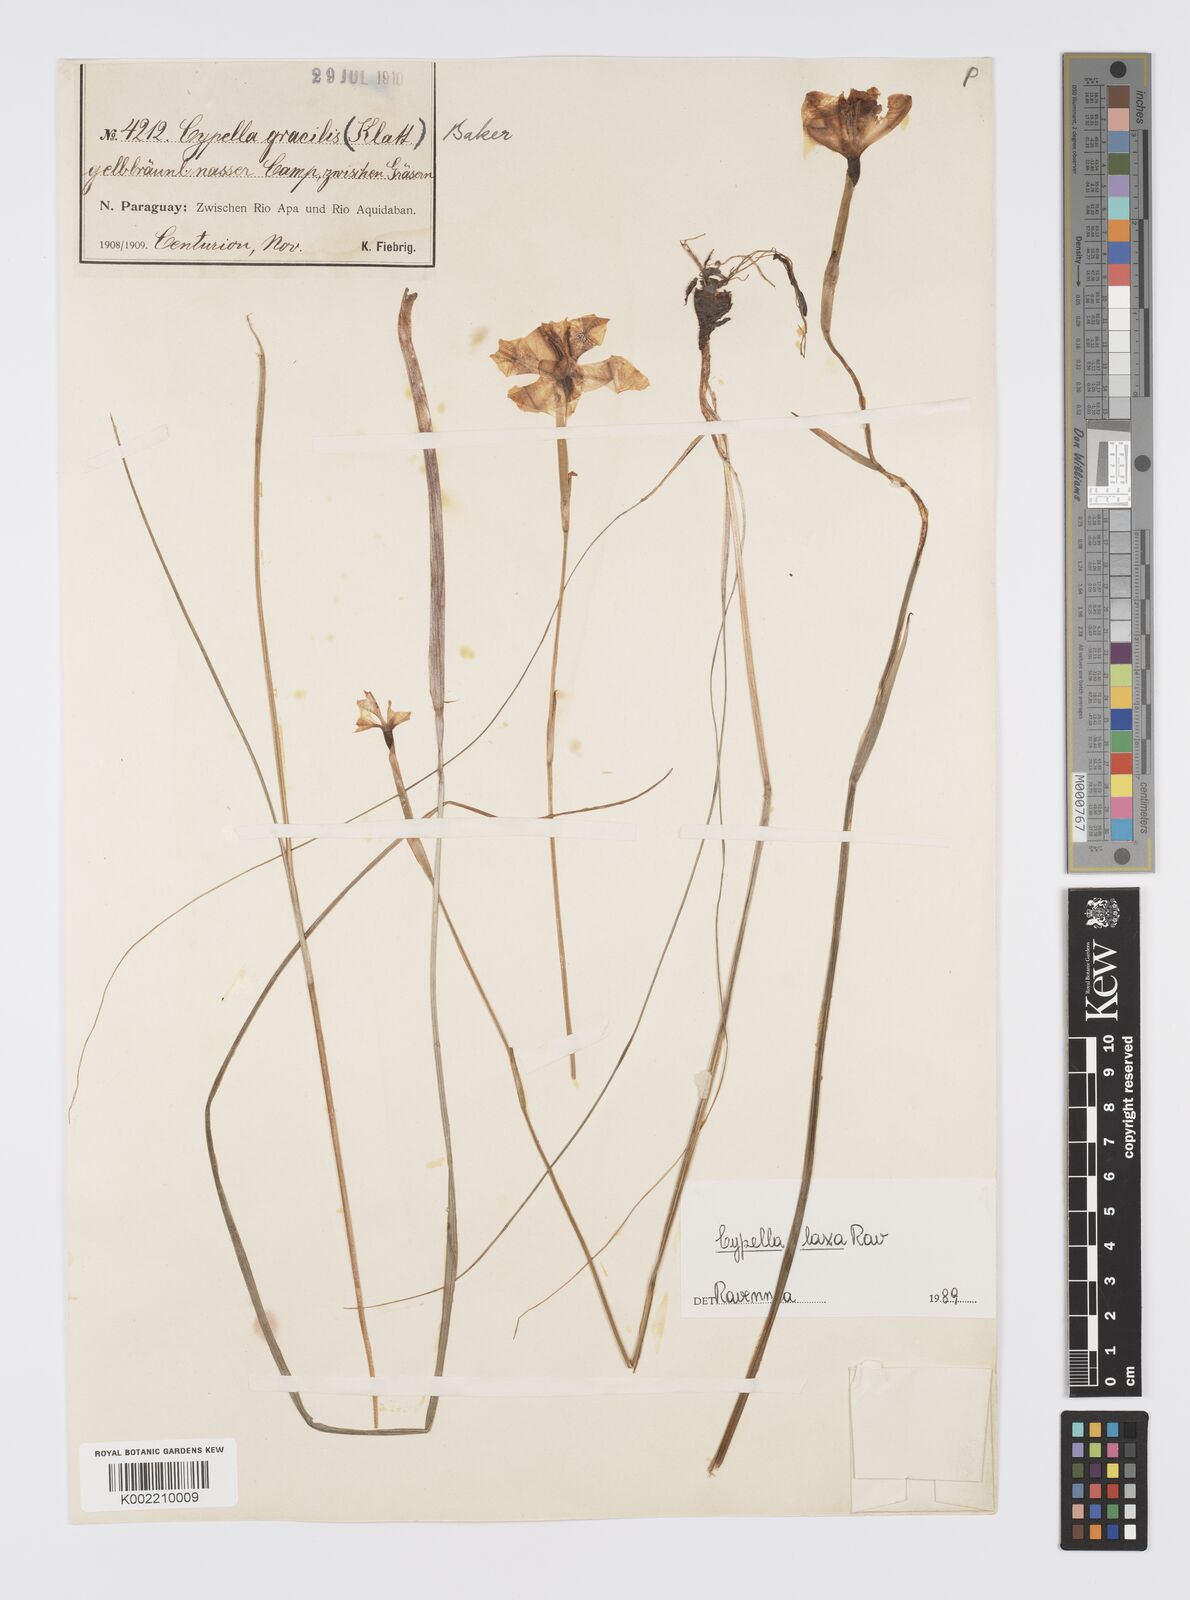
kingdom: Plantae
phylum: Tracheophyta
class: Liliopsida
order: Asparagales
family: Iridaceae
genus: Cypella
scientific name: Cypella crenata
